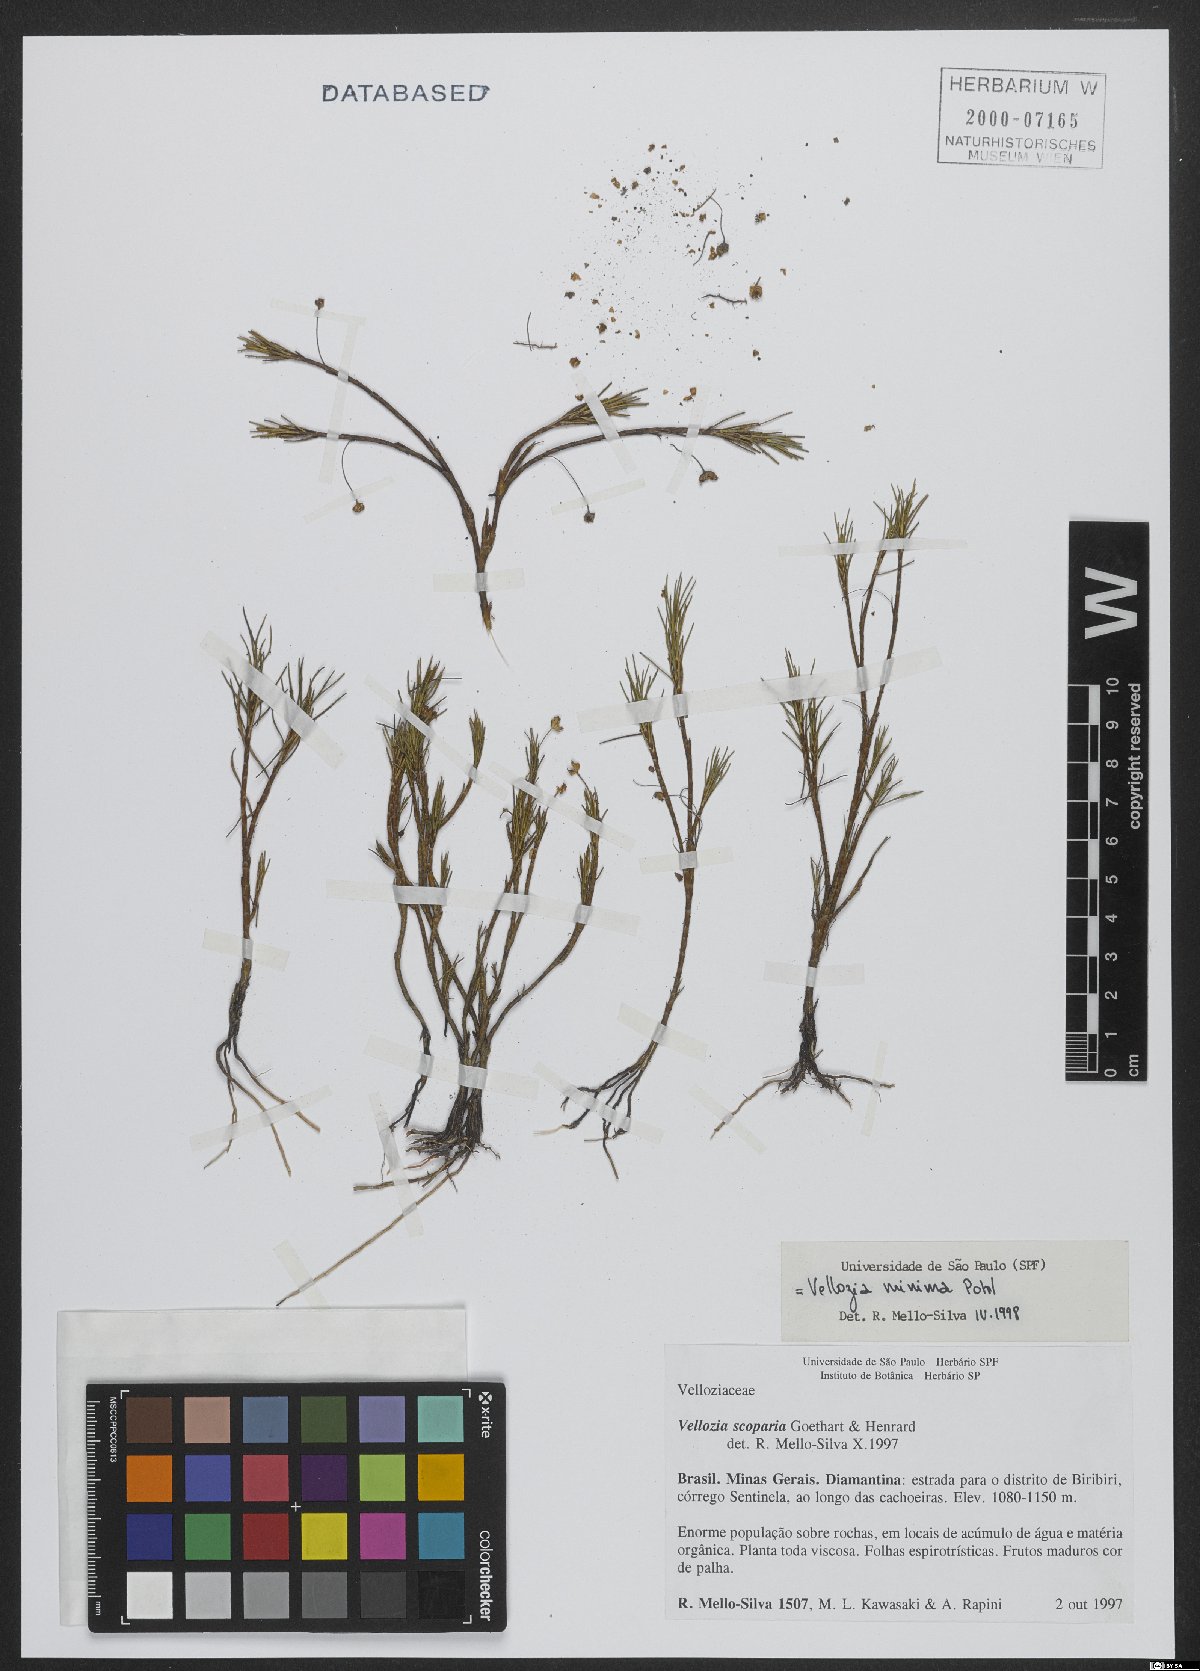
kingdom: Plantae
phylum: Tracheophyta
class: Liliopsida
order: Pandanales
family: Velloziaceae
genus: Vellozia
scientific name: Vellozia minima
